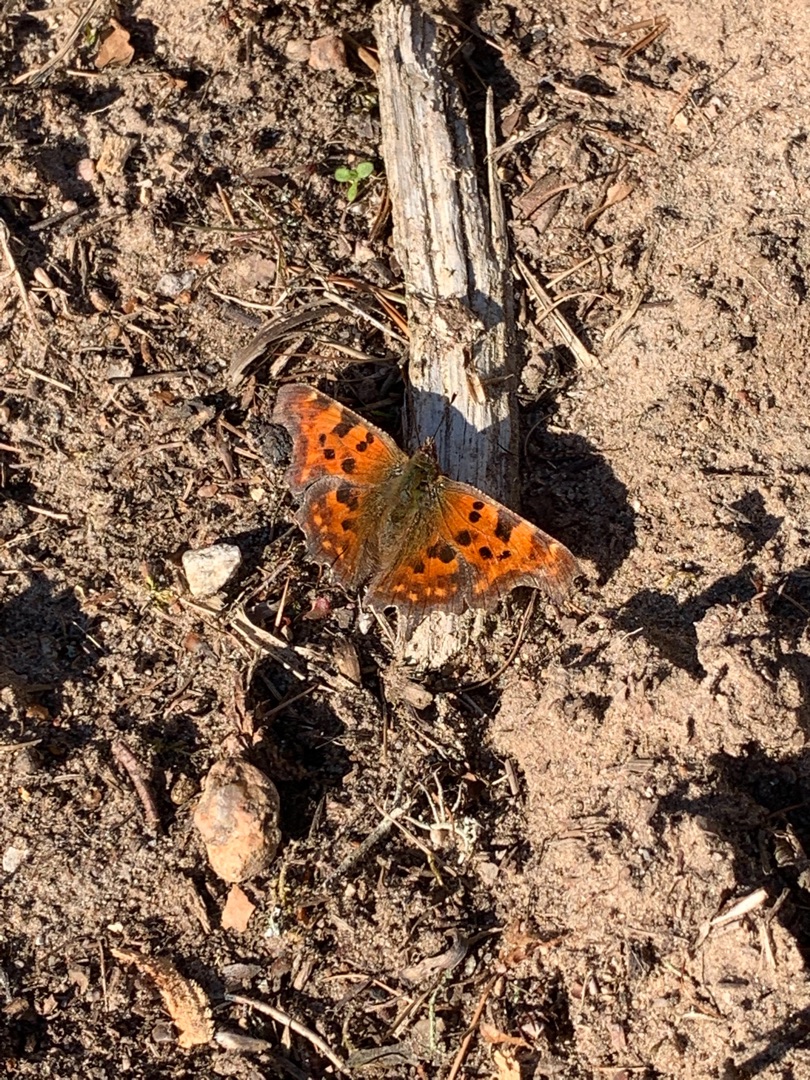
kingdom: Animalia
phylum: Arthropoda
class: Insecta
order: Lepidoptera
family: Nymphalidae
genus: Polygonia
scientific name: Polygonia c-album
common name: Det hvide C
